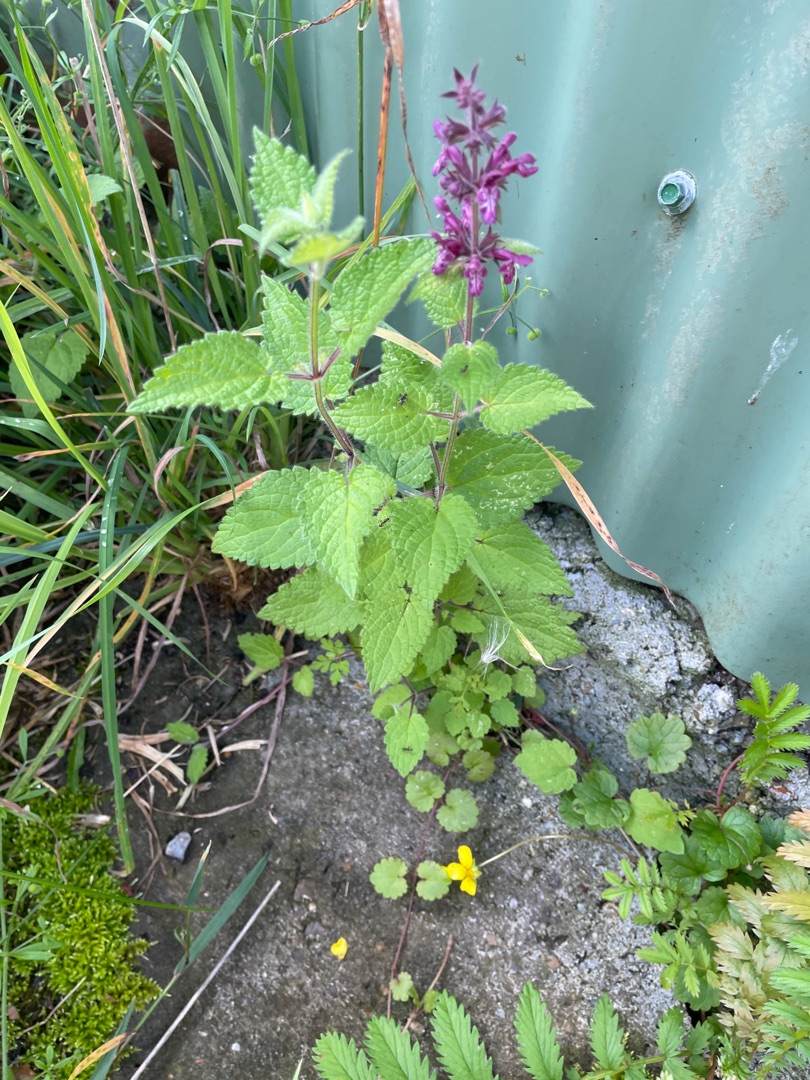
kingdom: Plantae
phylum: Tracheophyta
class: Magnoliopsida
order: Lamiales
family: Lamiaceae
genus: Stachys
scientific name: Stachys sylvatica
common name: Skov-galtetand
